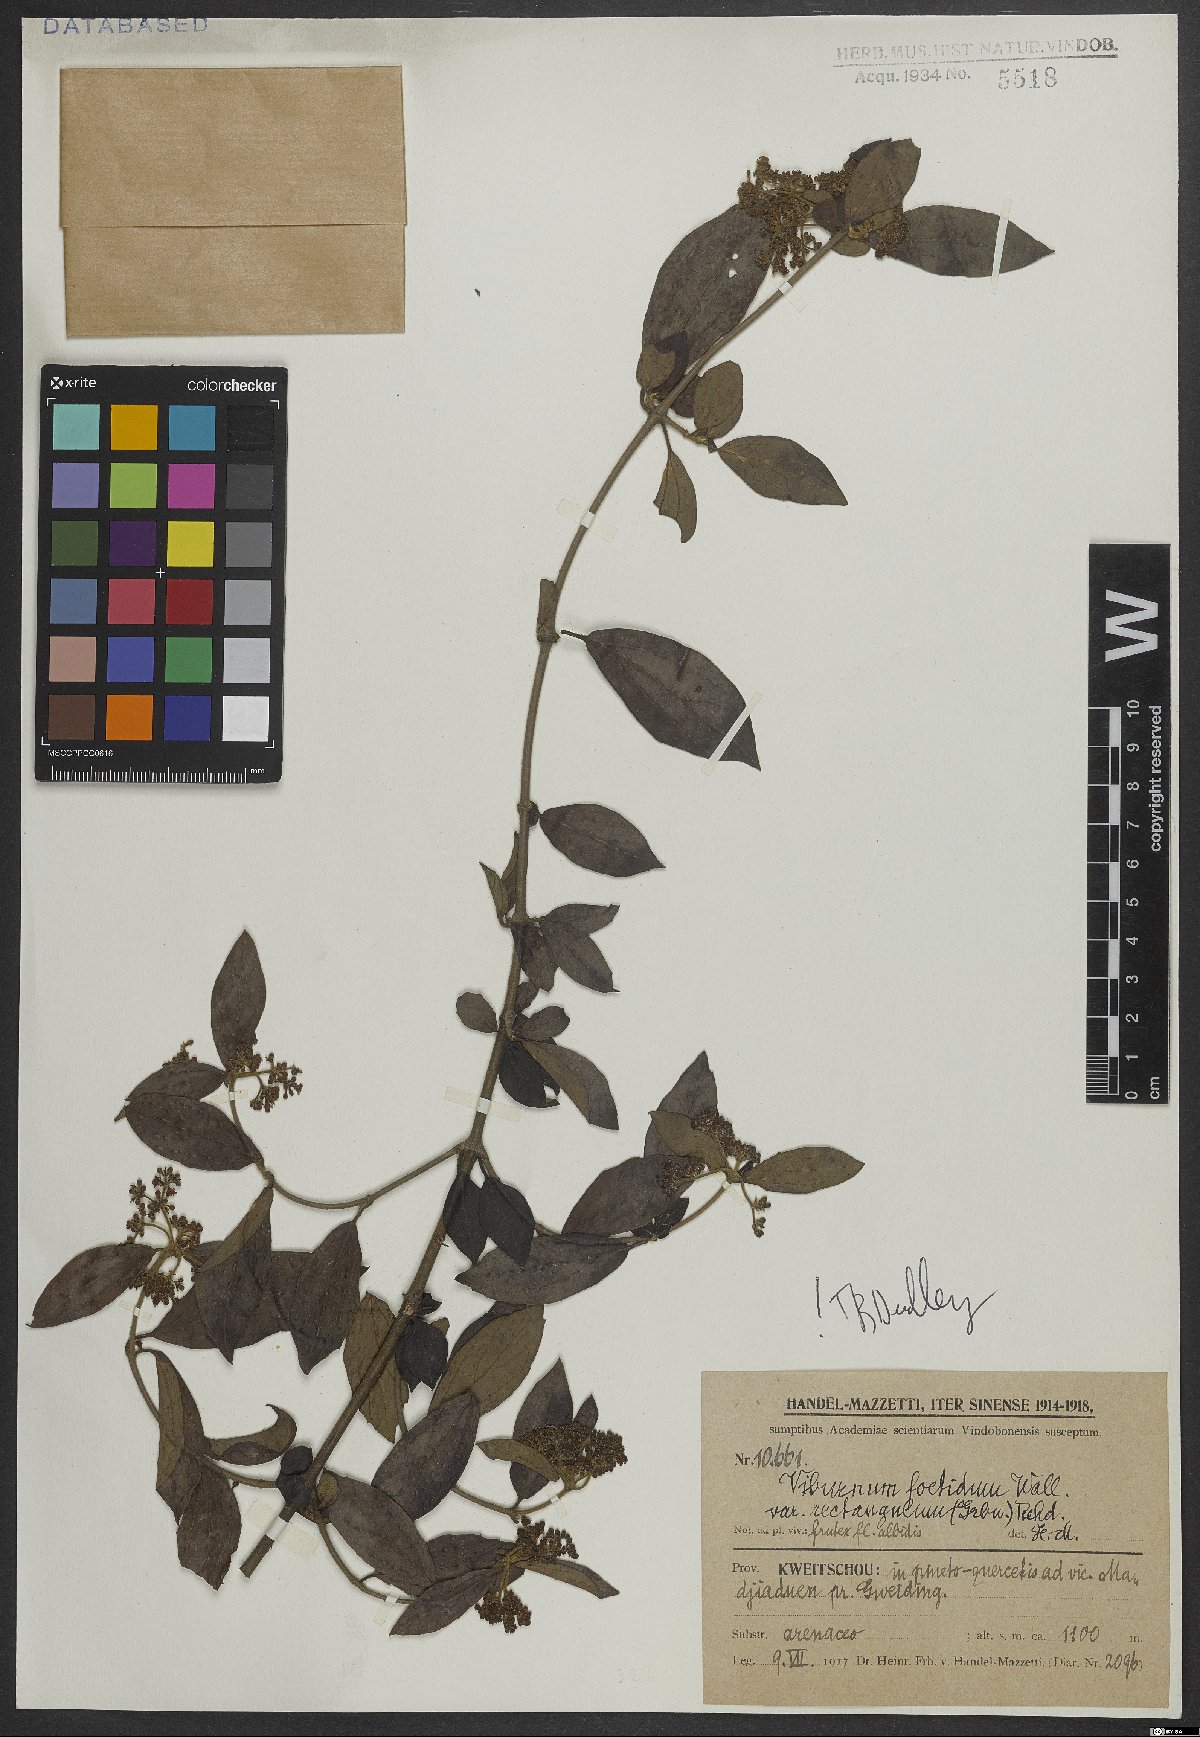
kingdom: Plantae
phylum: Tracheophyta
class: Magnoliopsida
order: Dipsacales
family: Viburnaceae
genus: Viburnum
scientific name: Viburnum foetidum
